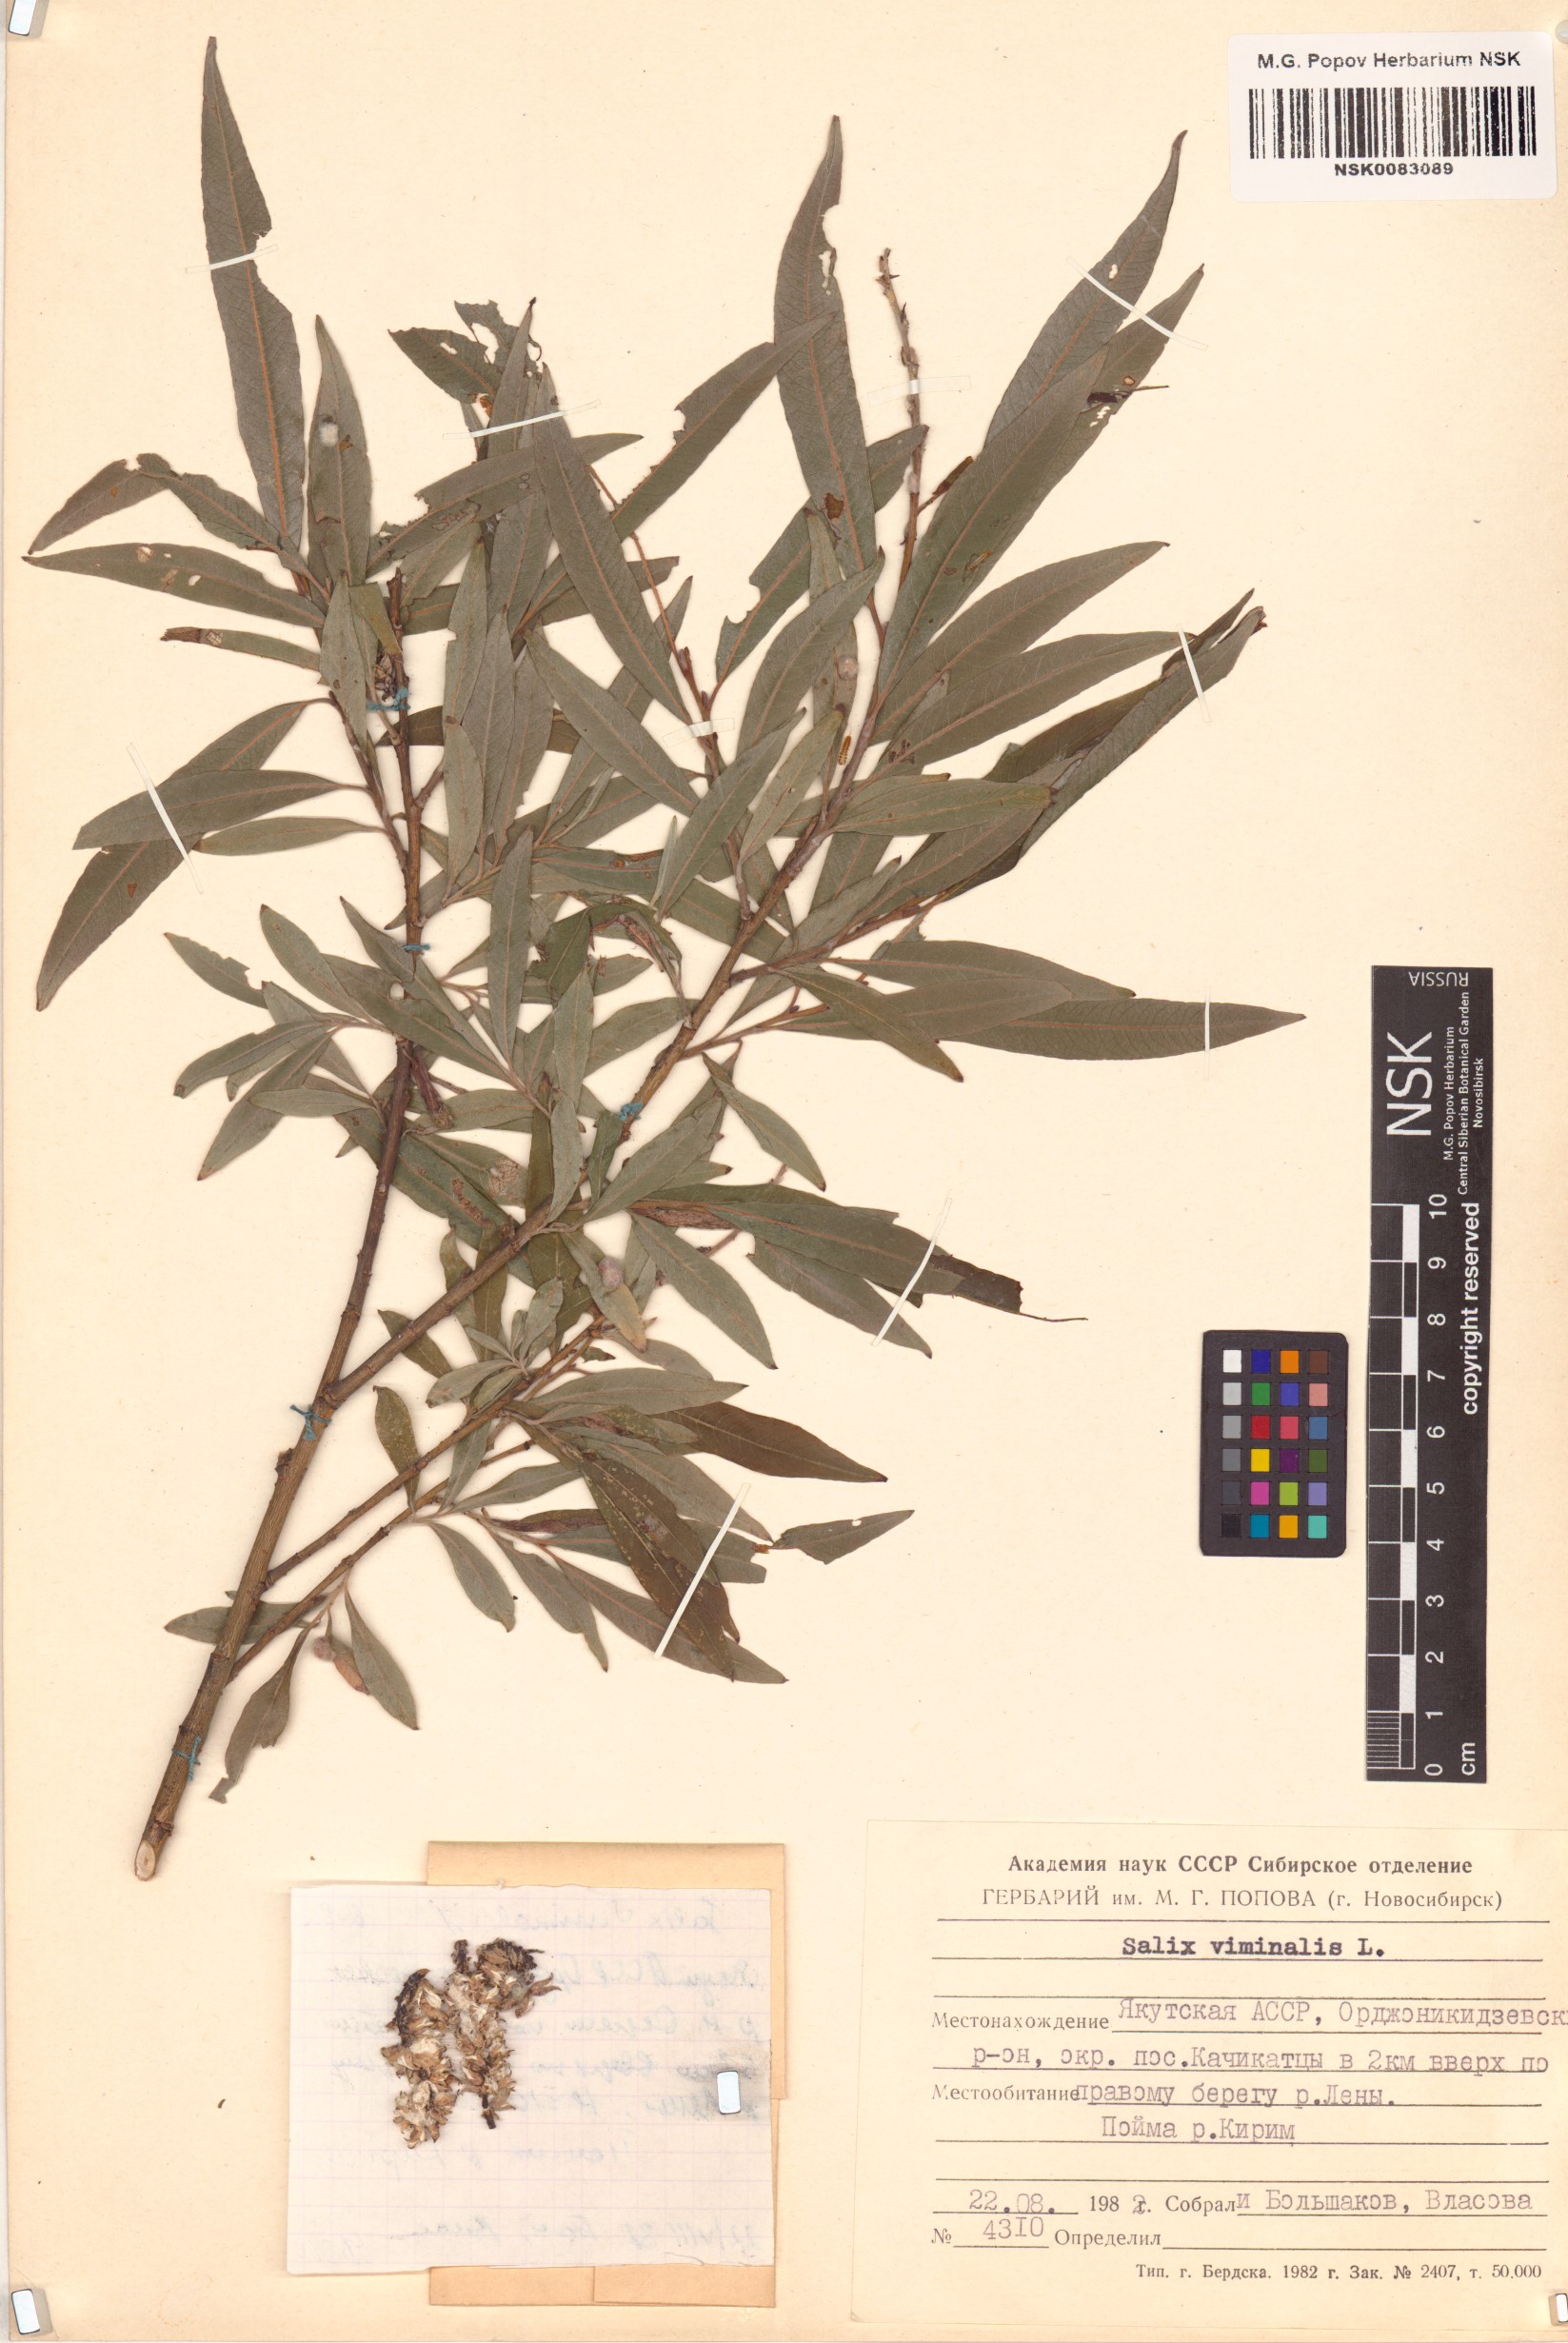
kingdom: Plantae
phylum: Tracheophyta
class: Magnoliopsida
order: Malpighiales
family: Salicaceae
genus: Salix
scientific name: Salix viminalis
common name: Osier
